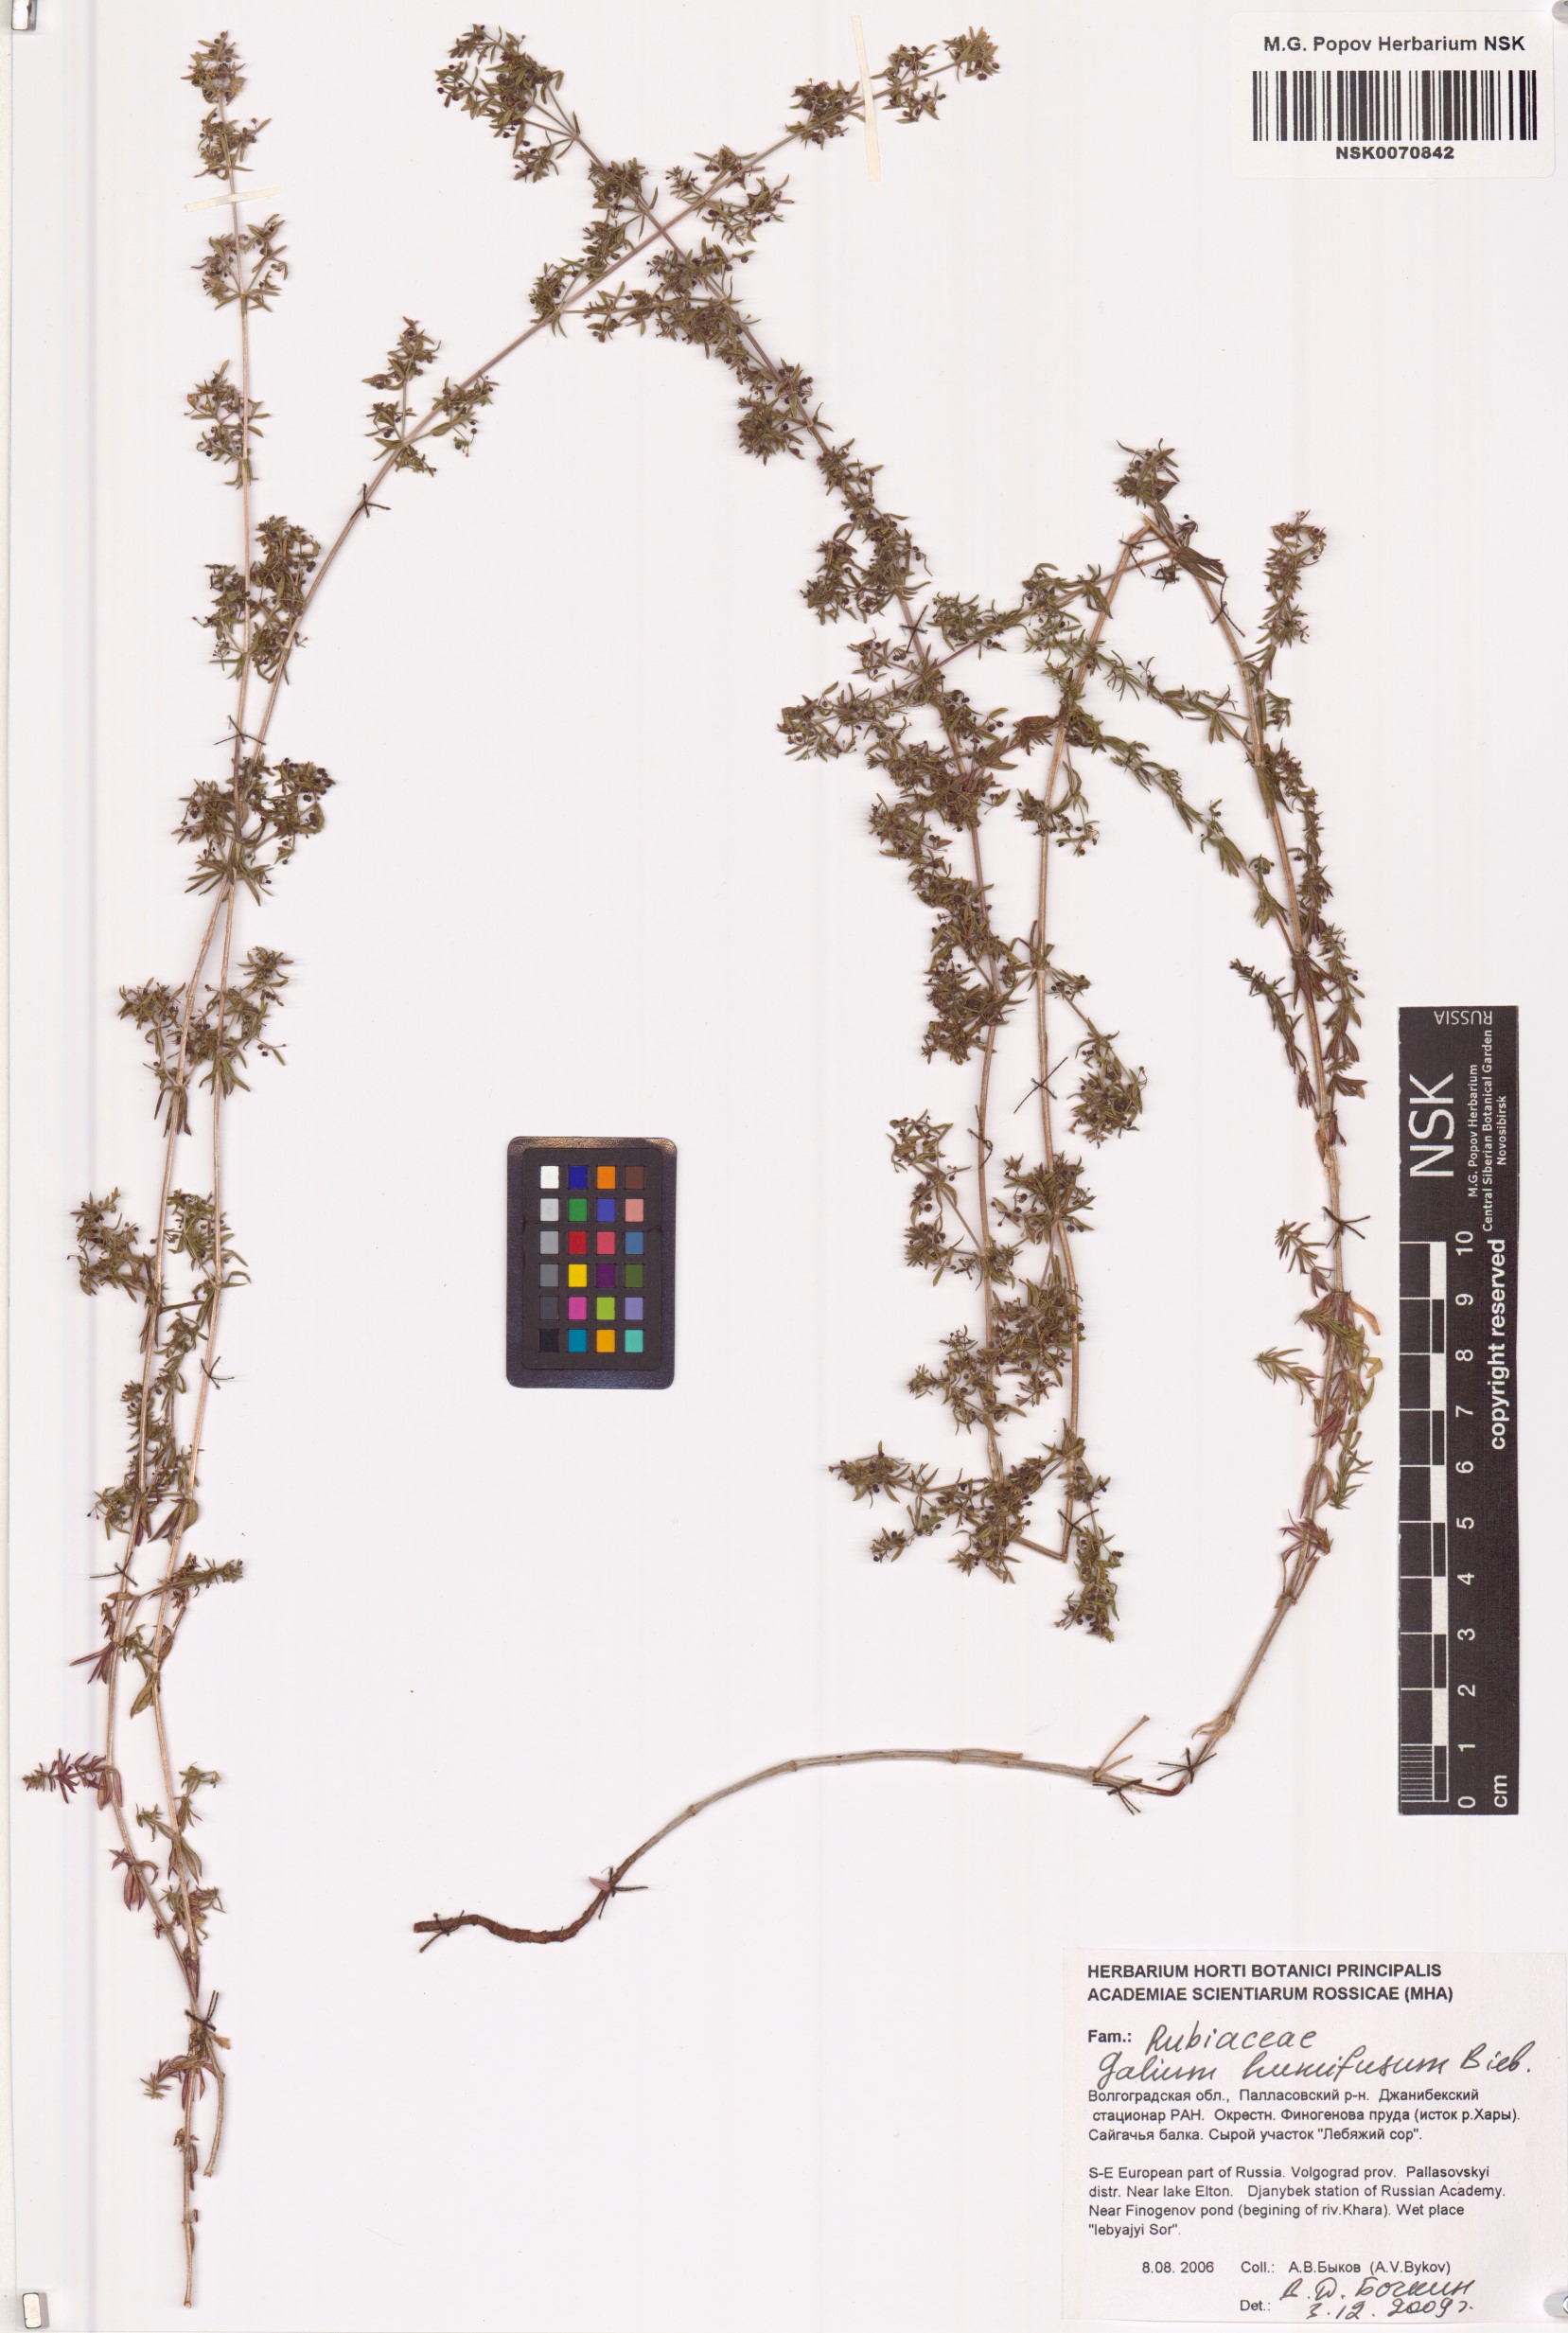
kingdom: Plantae
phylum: Tracheophyta
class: Magnoliopsida
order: Gentianales
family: Rubiaceae
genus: Galium
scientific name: Galium humifusum
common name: Spreading bedstraw
